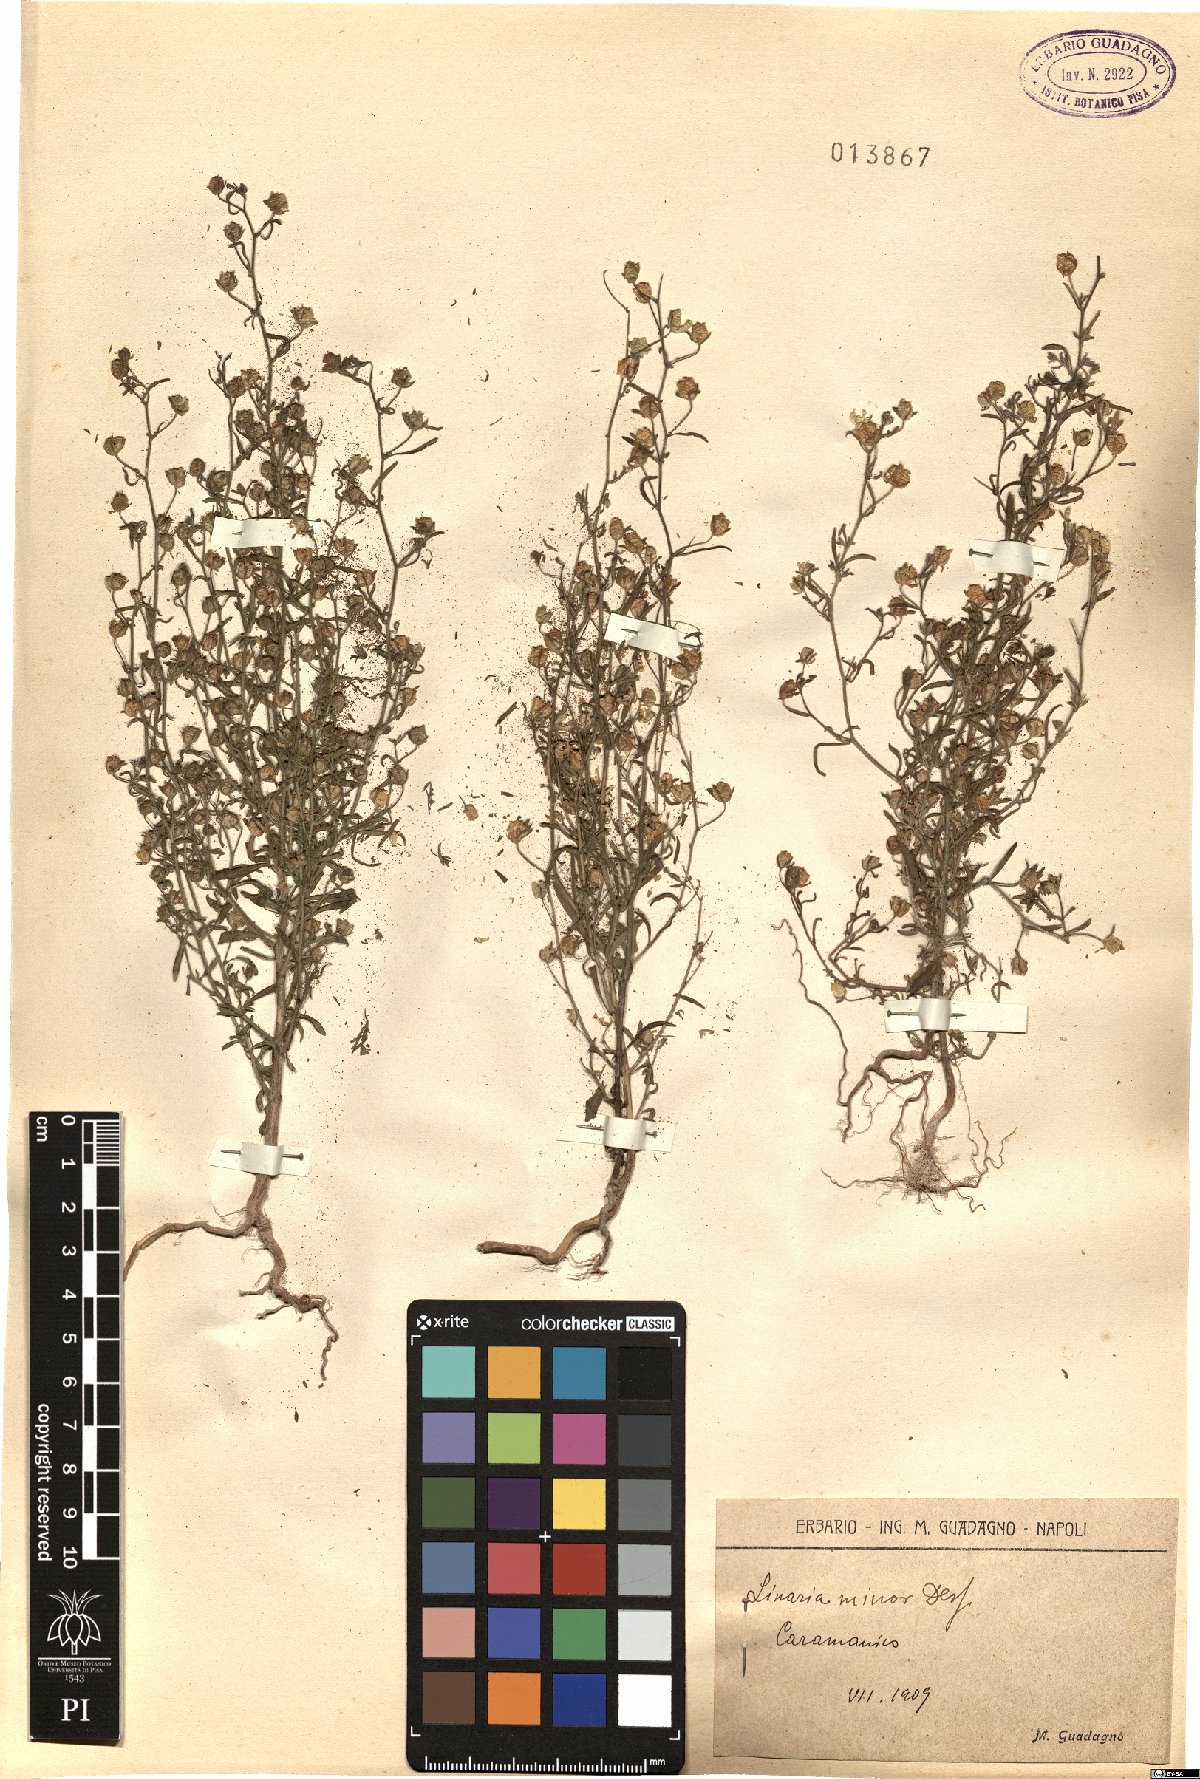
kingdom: Plantae
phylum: Tracheophyta
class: Magnoliopsida
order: Lamiales
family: Plantaginaceae
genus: Chaenorhinum
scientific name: Chaenorhinum minus
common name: Dwarf snapdragon
